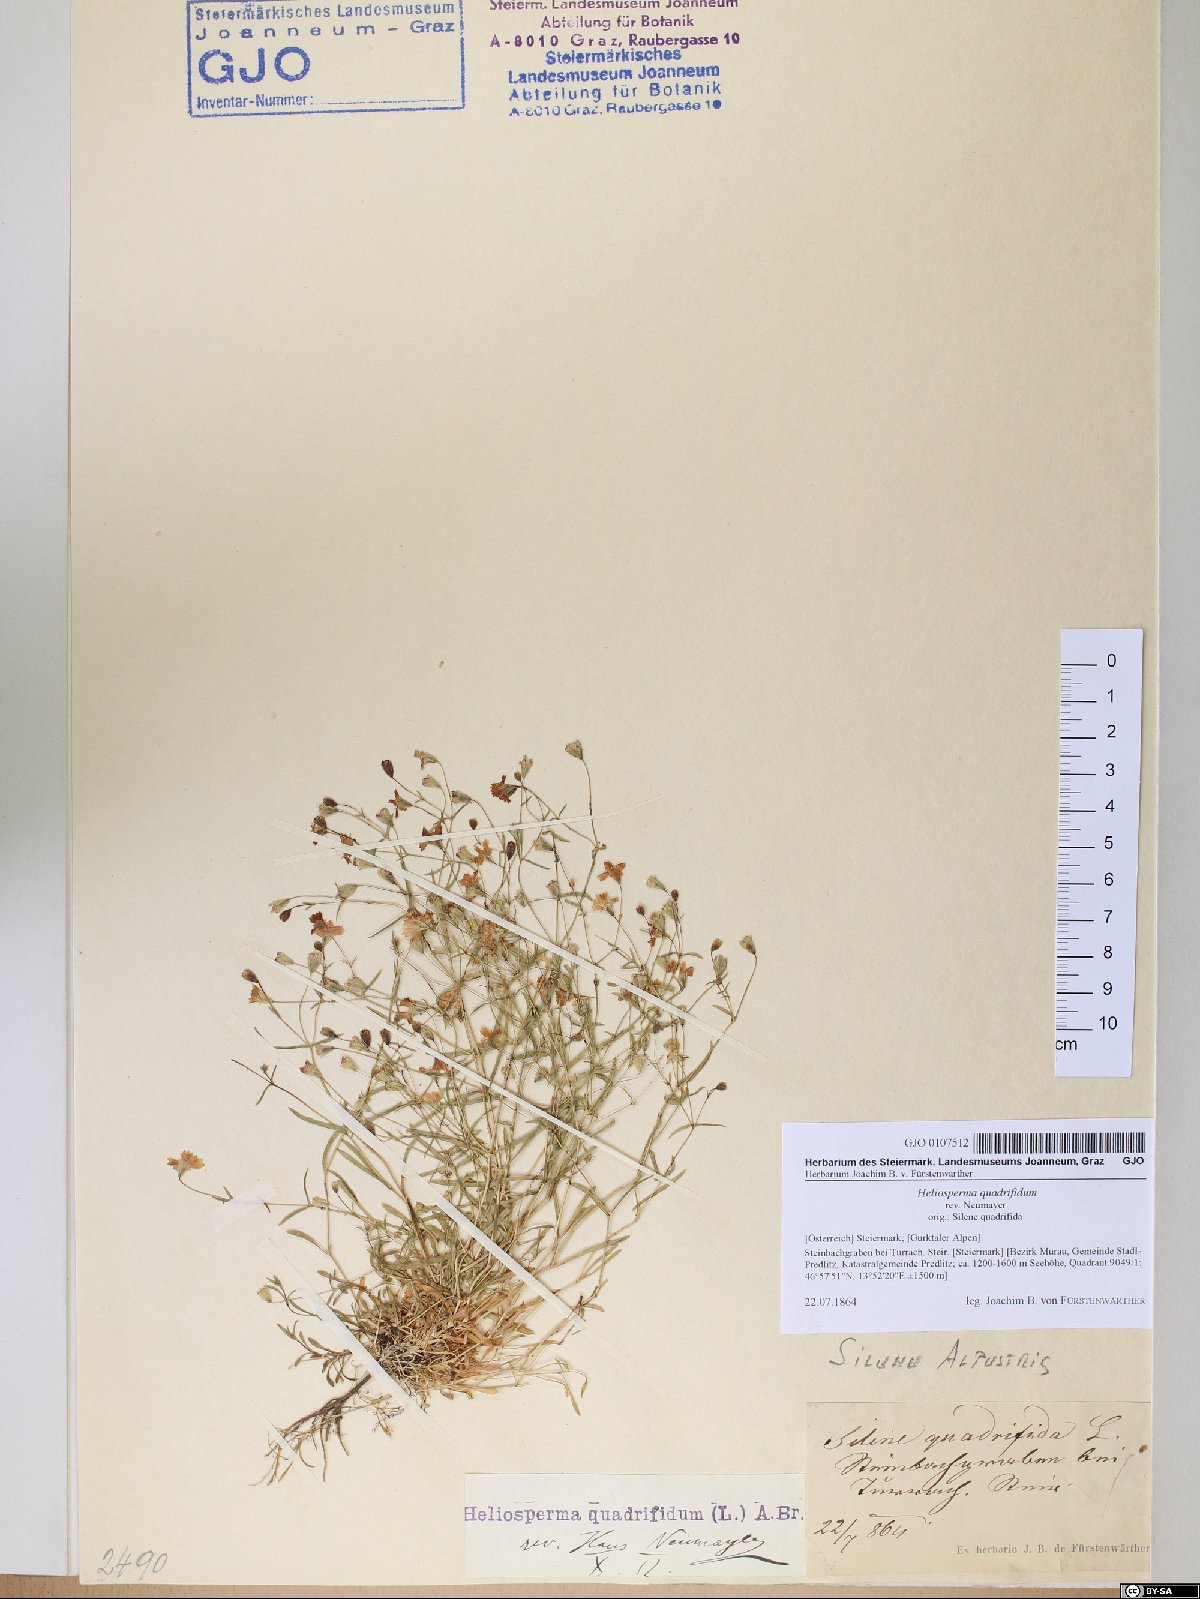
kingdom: Plantae
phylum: Tracheophyta
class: Magnoliopsida
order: Caryophyllales
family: Caryophyllaceae
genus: Heliosperma
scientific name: Heliosperma alpestre
